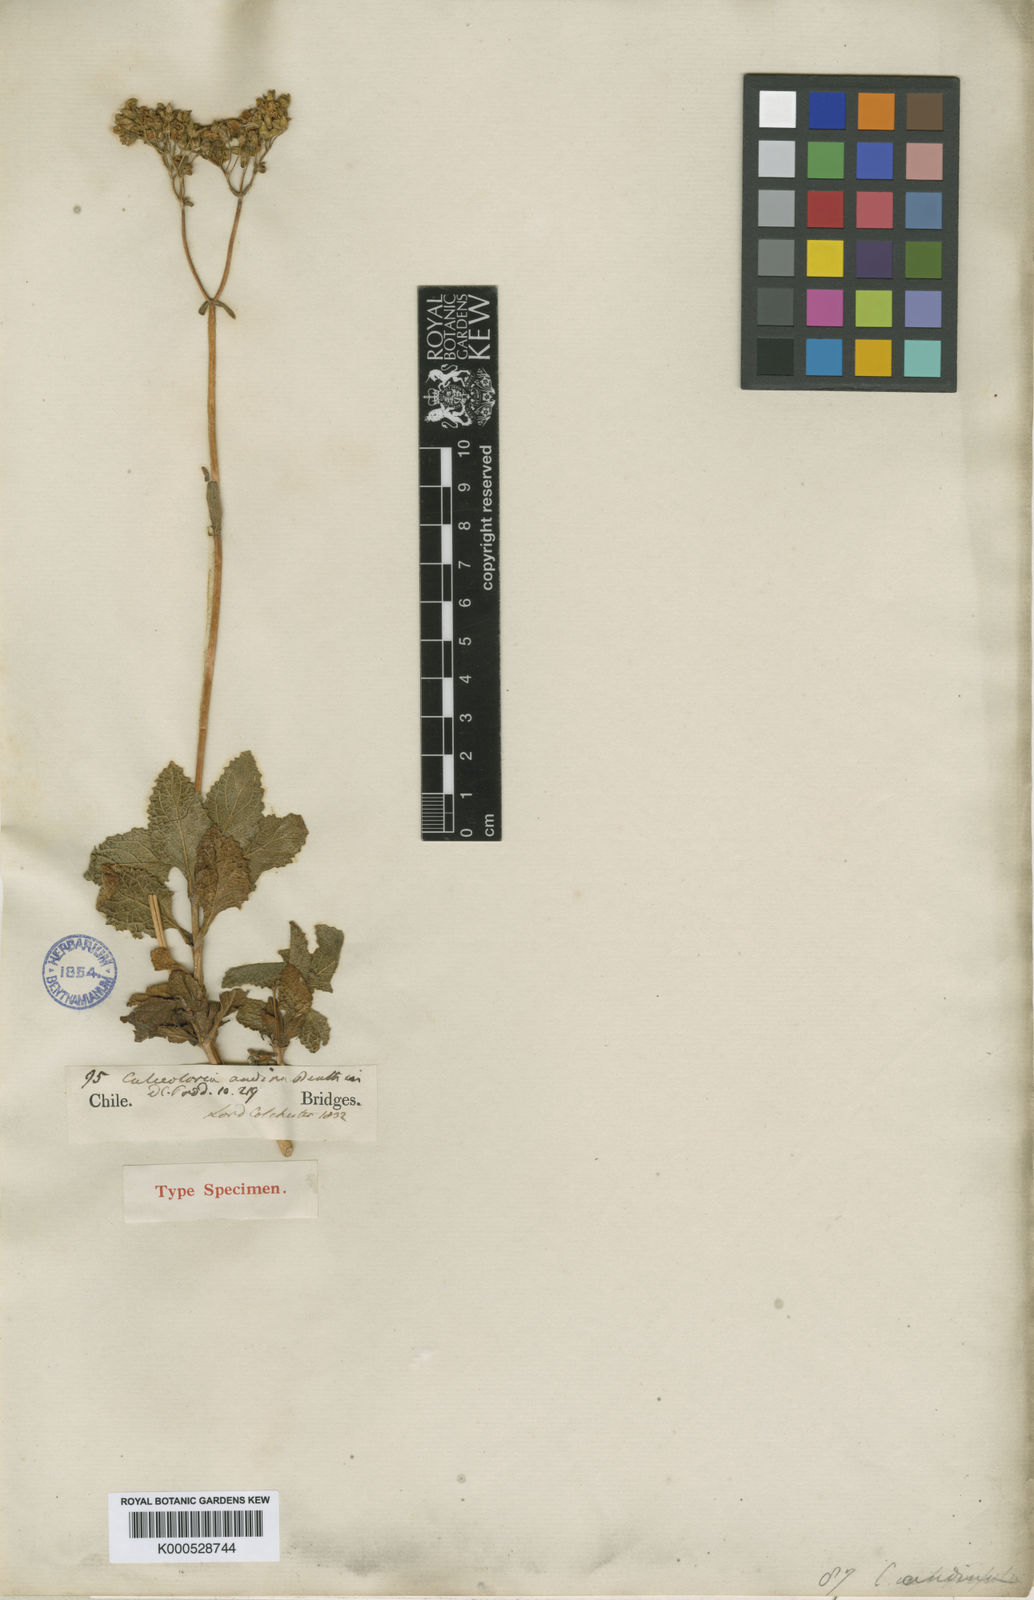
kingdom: Plantae
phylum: Tracheophyta
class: Magnoliopsida
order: Lamiales
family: Calceolariaceae
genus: Calceolaria
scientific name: Calceolaria integrifolia
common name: Bush slipperwort
